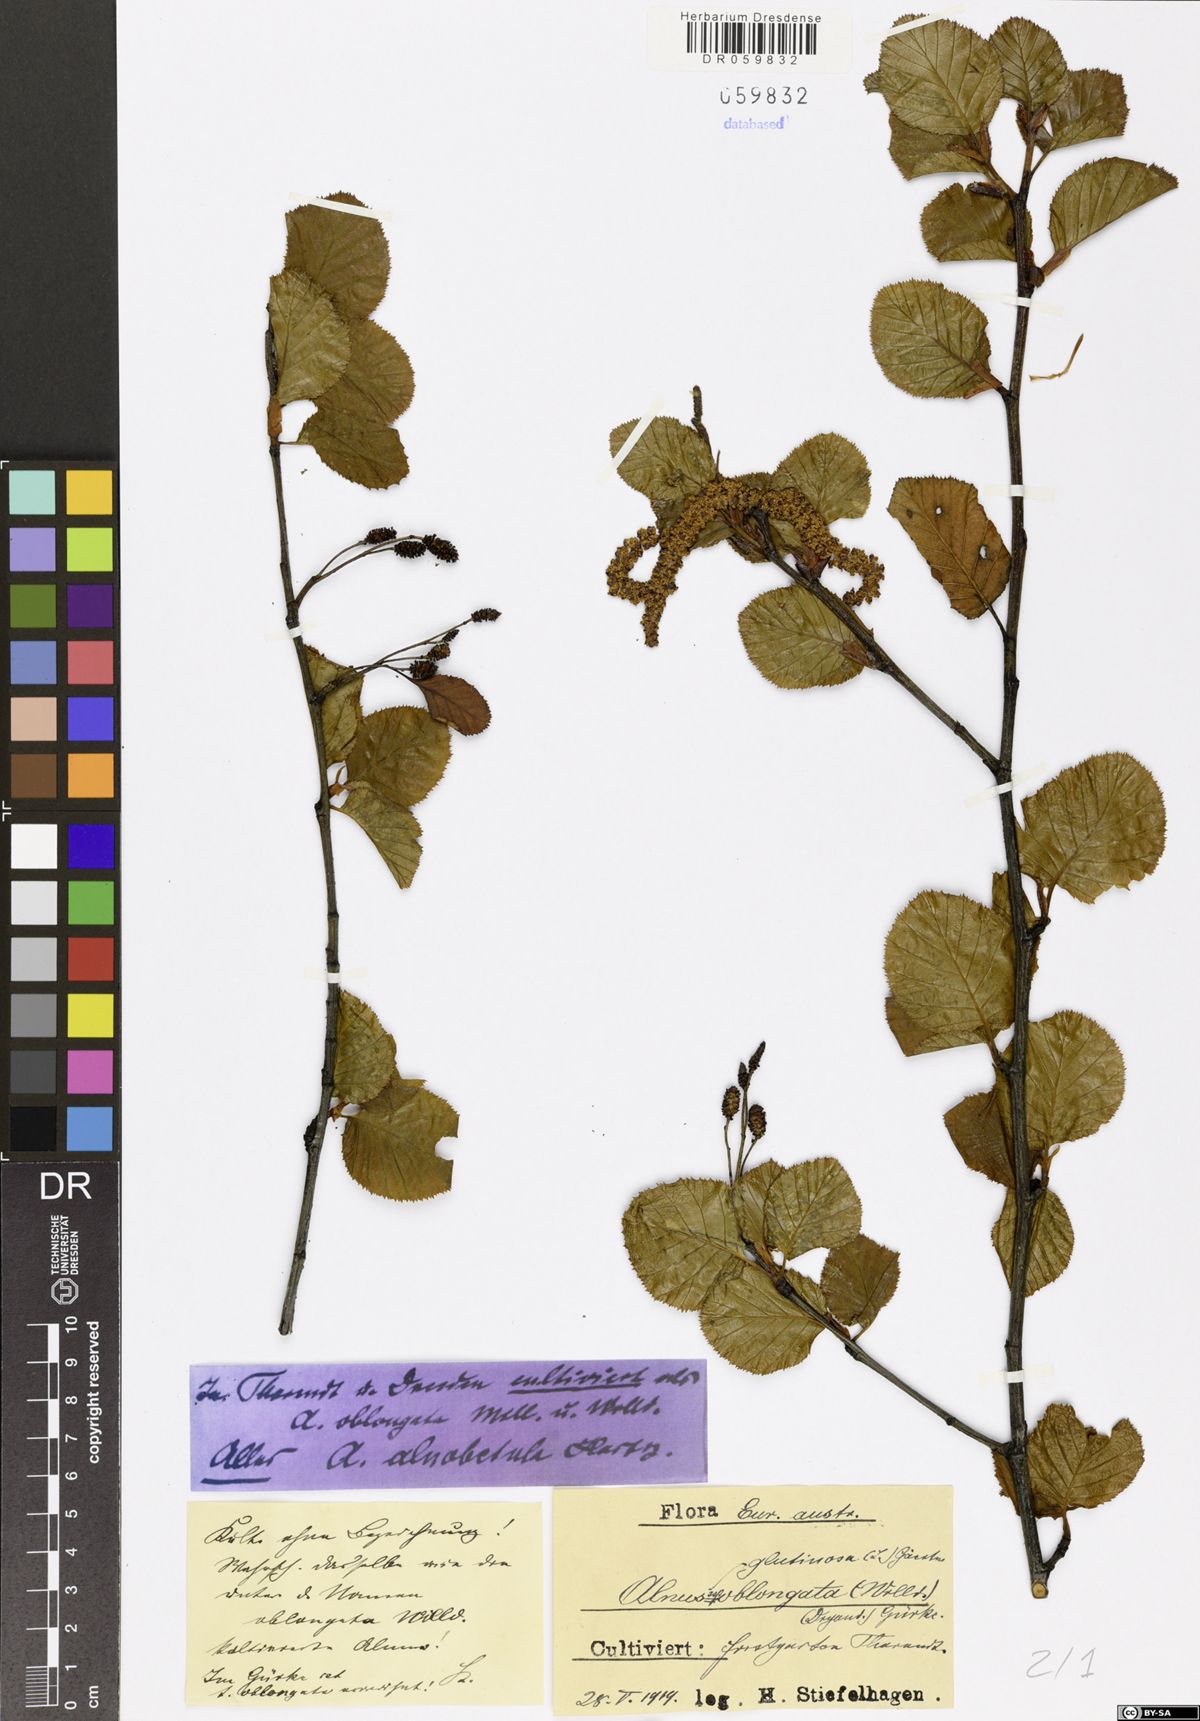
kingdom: Plantae
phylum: Tracheophyta
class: Magnoliopsida
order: Fagales
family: Betulaceae
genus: Alnus
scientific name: Alnus alnobetula
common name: Green alder
